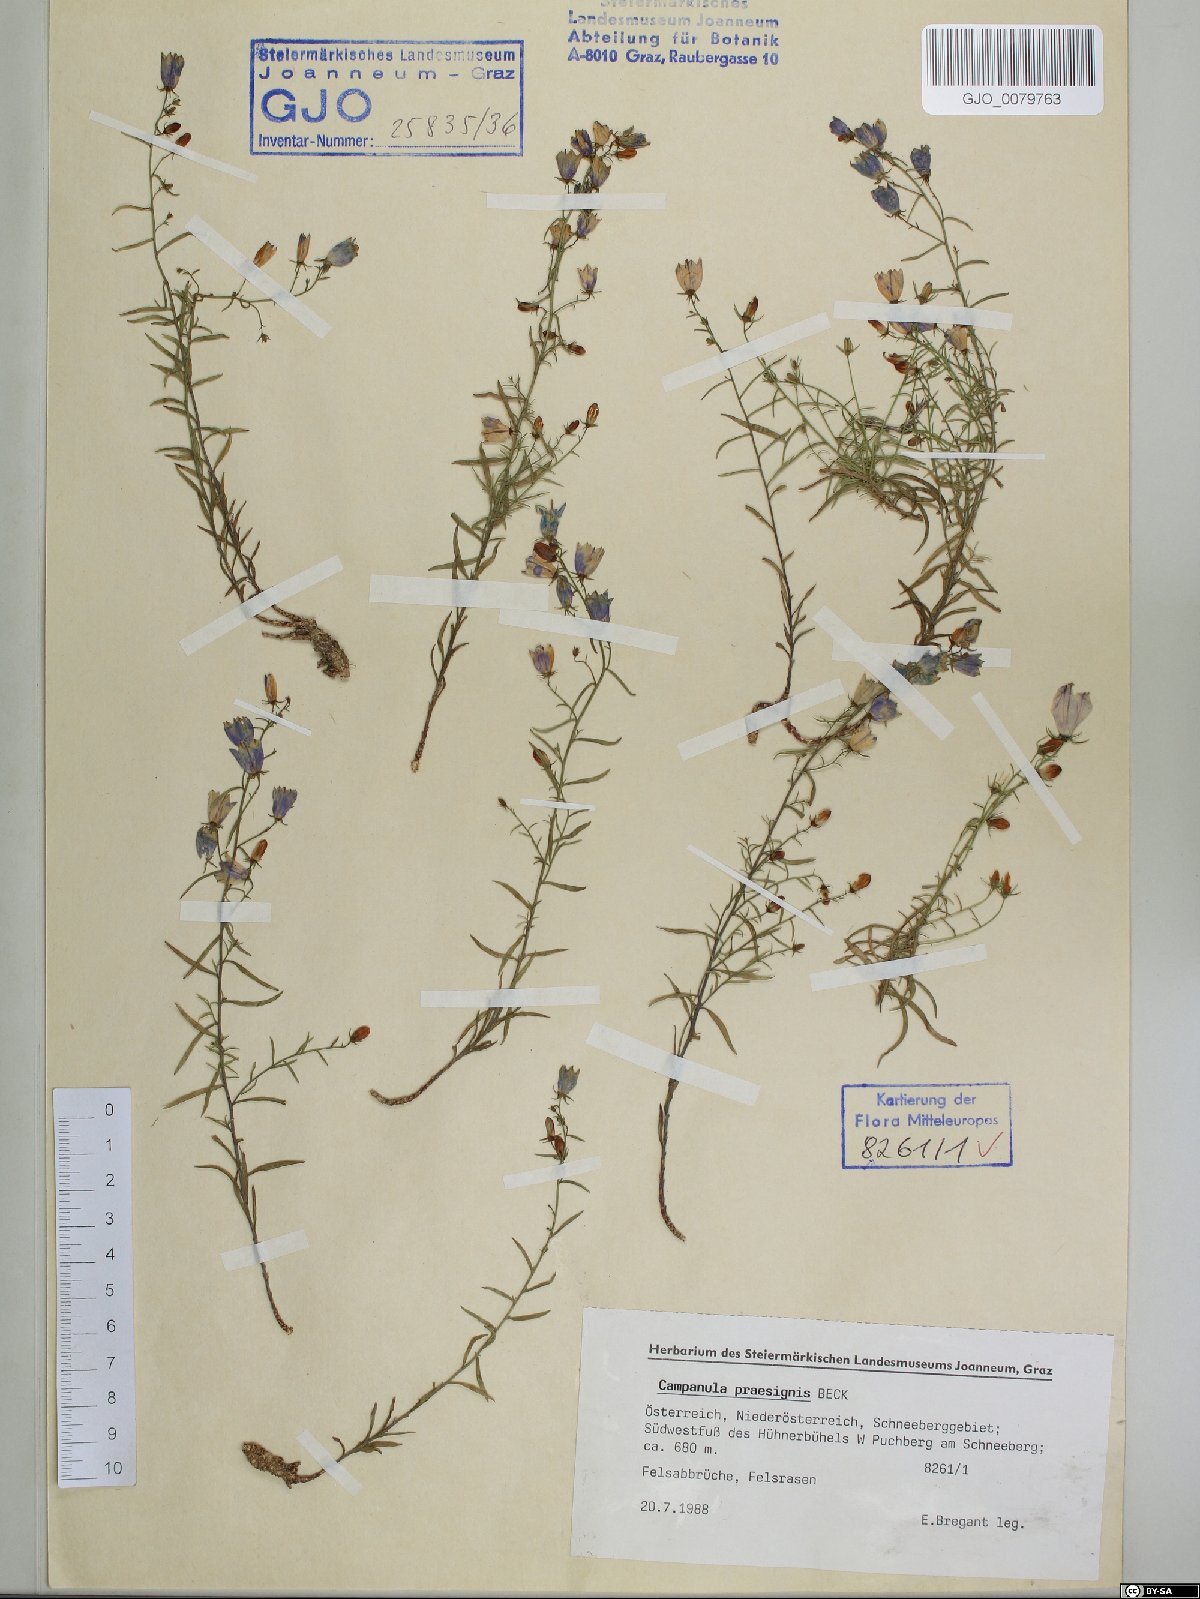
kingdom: Plantae
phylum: Tracheophyta
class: Magnoliopsida
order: Asterales
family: Campanulaceae
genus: Campanula
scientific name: Campanula praesignis
